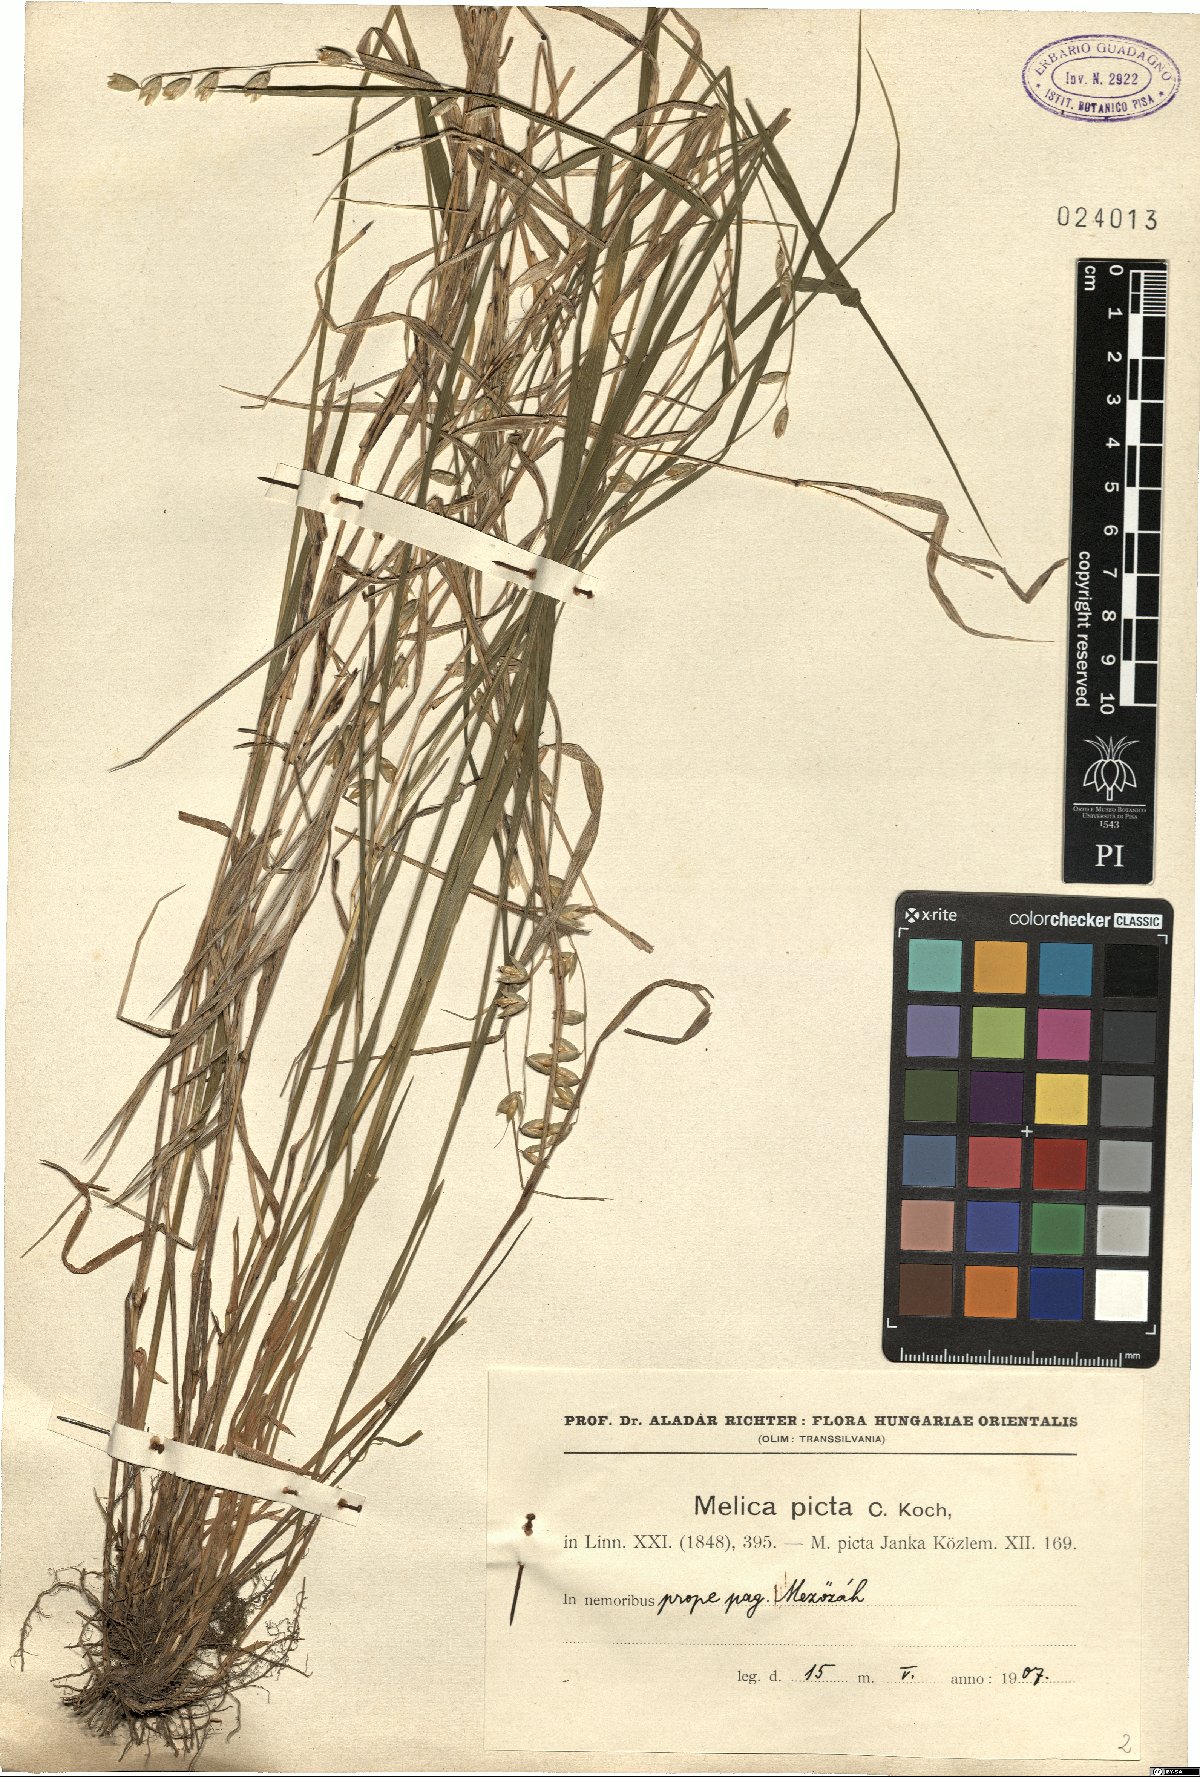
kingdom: Plantae
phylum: Tracheophyta
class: Liliopsida
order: Poales
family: Poaceae
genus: Melica
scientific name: Melica picta
